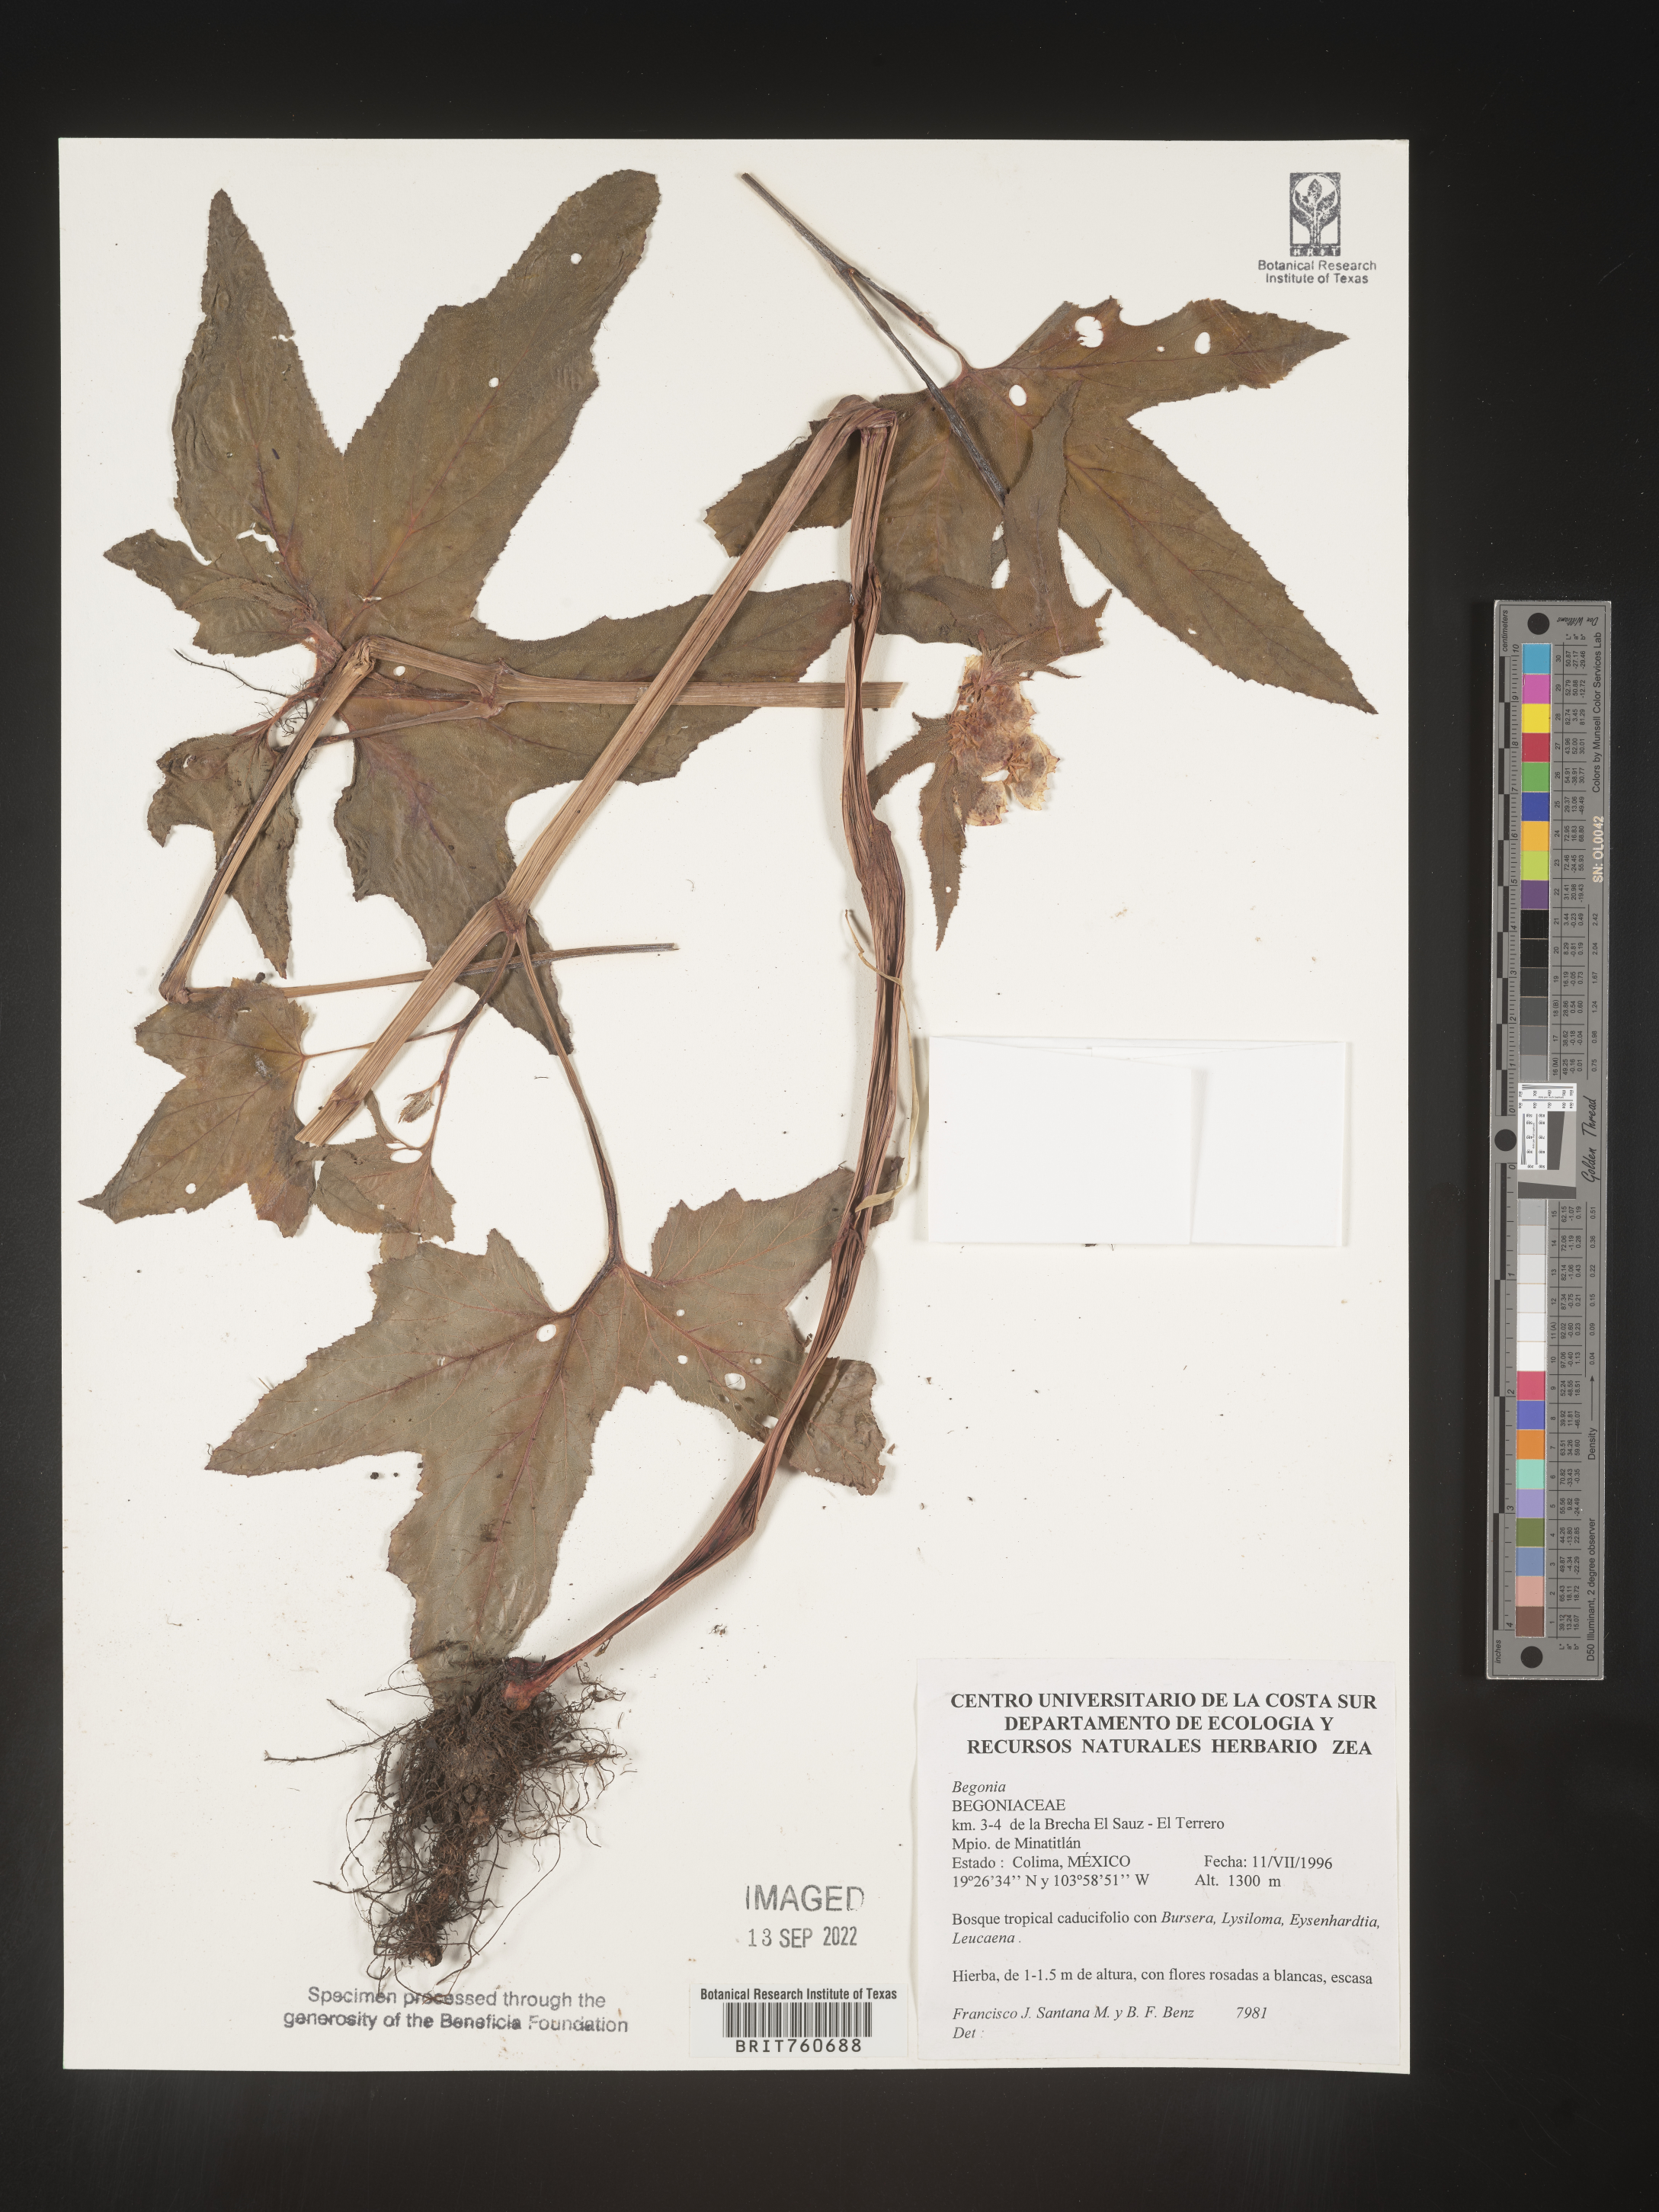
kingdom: Plantae
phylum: Tracheophyta
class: Magnoliopsida
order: Cucurbitales
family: Begoniaceae
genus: Begonia
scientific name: Begonia
